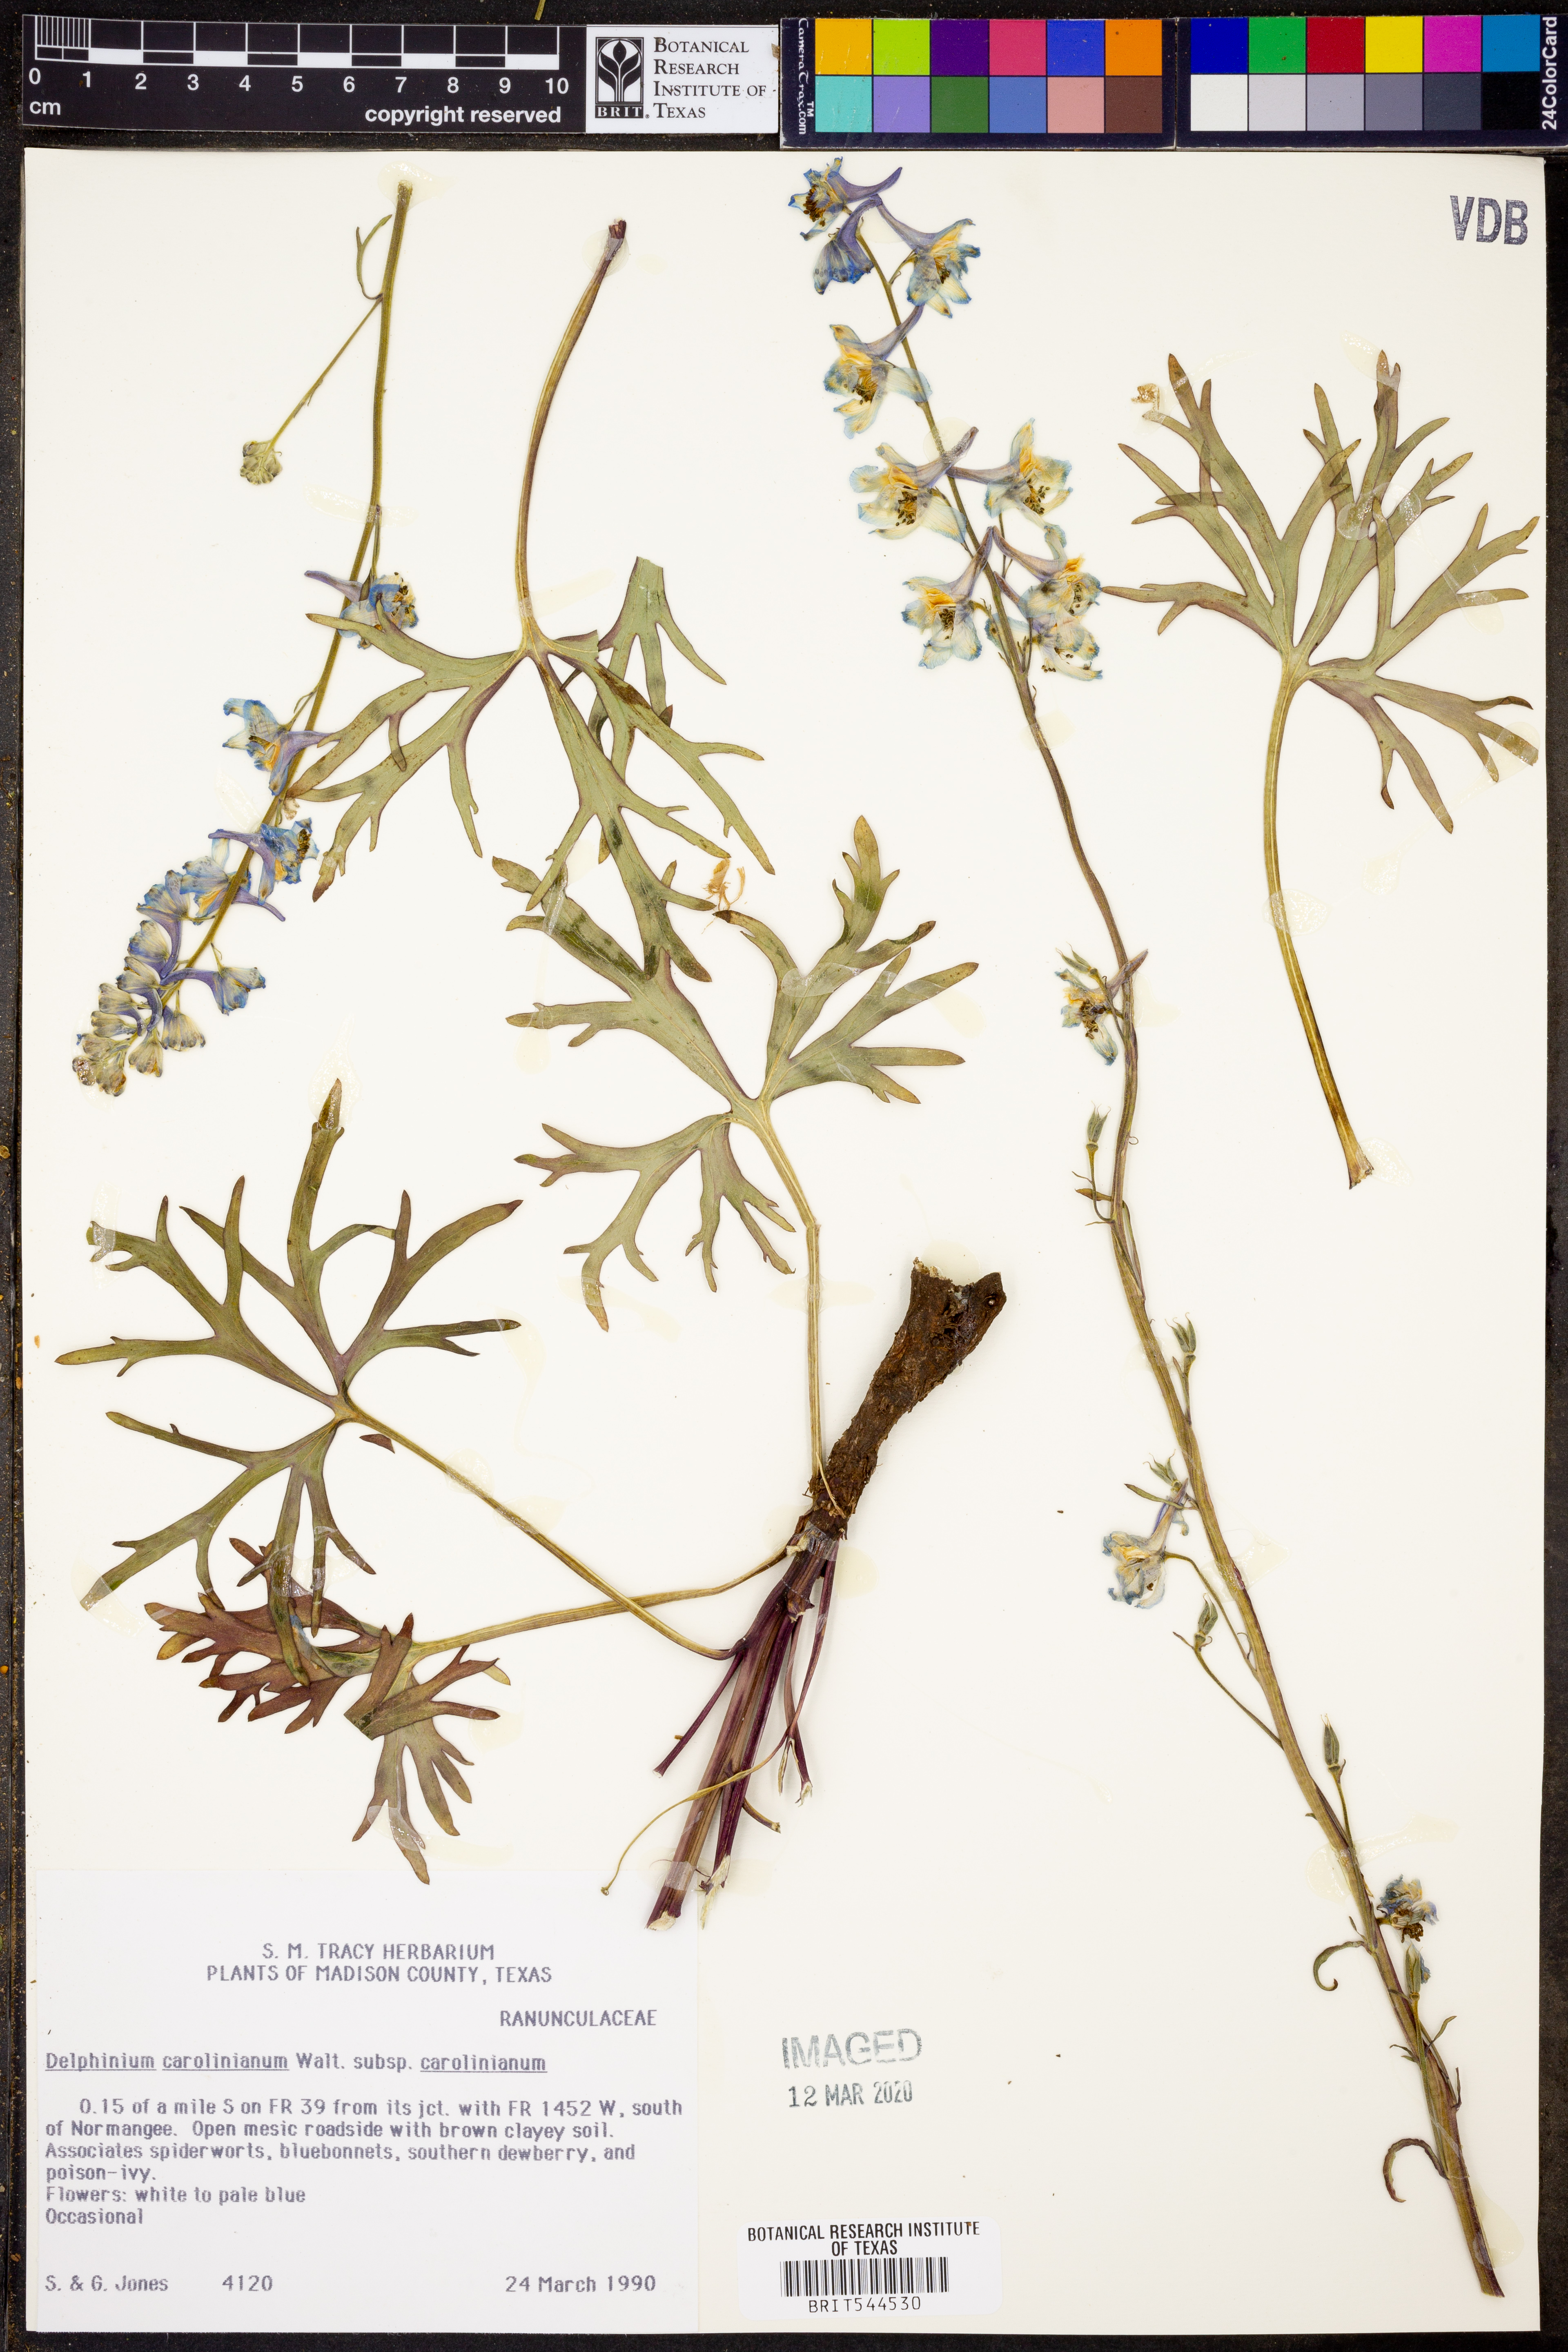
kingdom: Plantae
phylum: Tracheophyta
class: Magnoliopsida
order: Ranunculales
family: Ranunculaceae
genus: Delphinium
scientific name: Delphinium carolinianum
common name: Carolina larkspur
